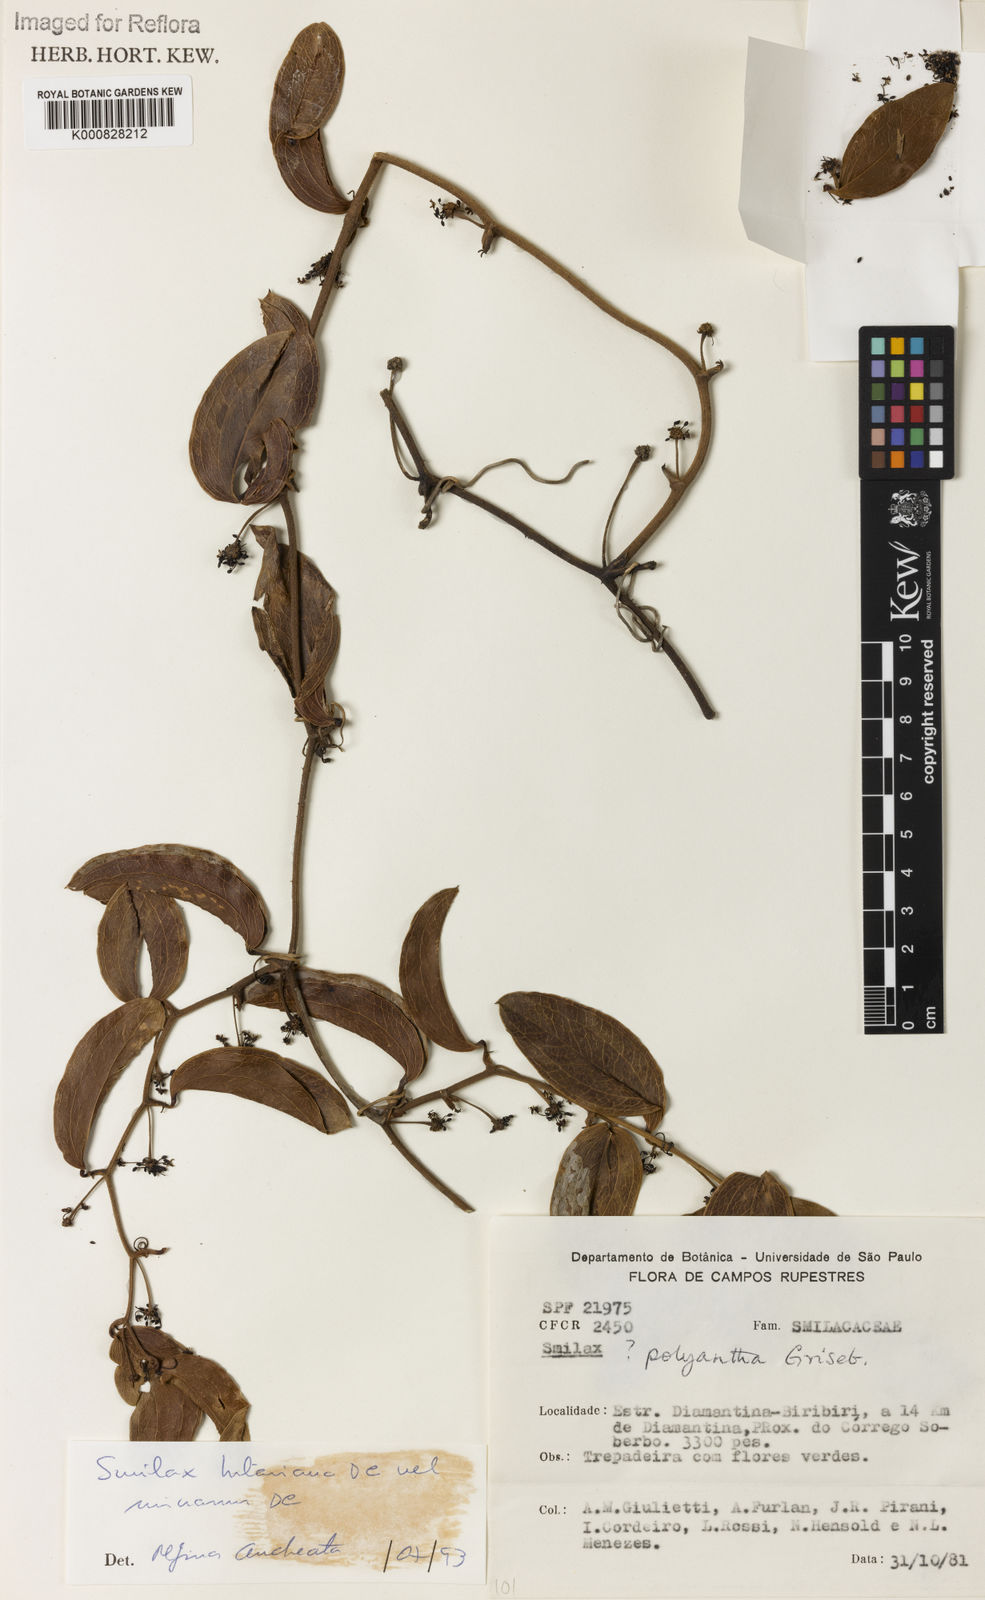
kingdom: Plantae
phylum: Tracheophyta
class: Liliopsida
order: Liliales
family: Smilacaceae
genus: Smilax
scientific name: Smilax hilariana
